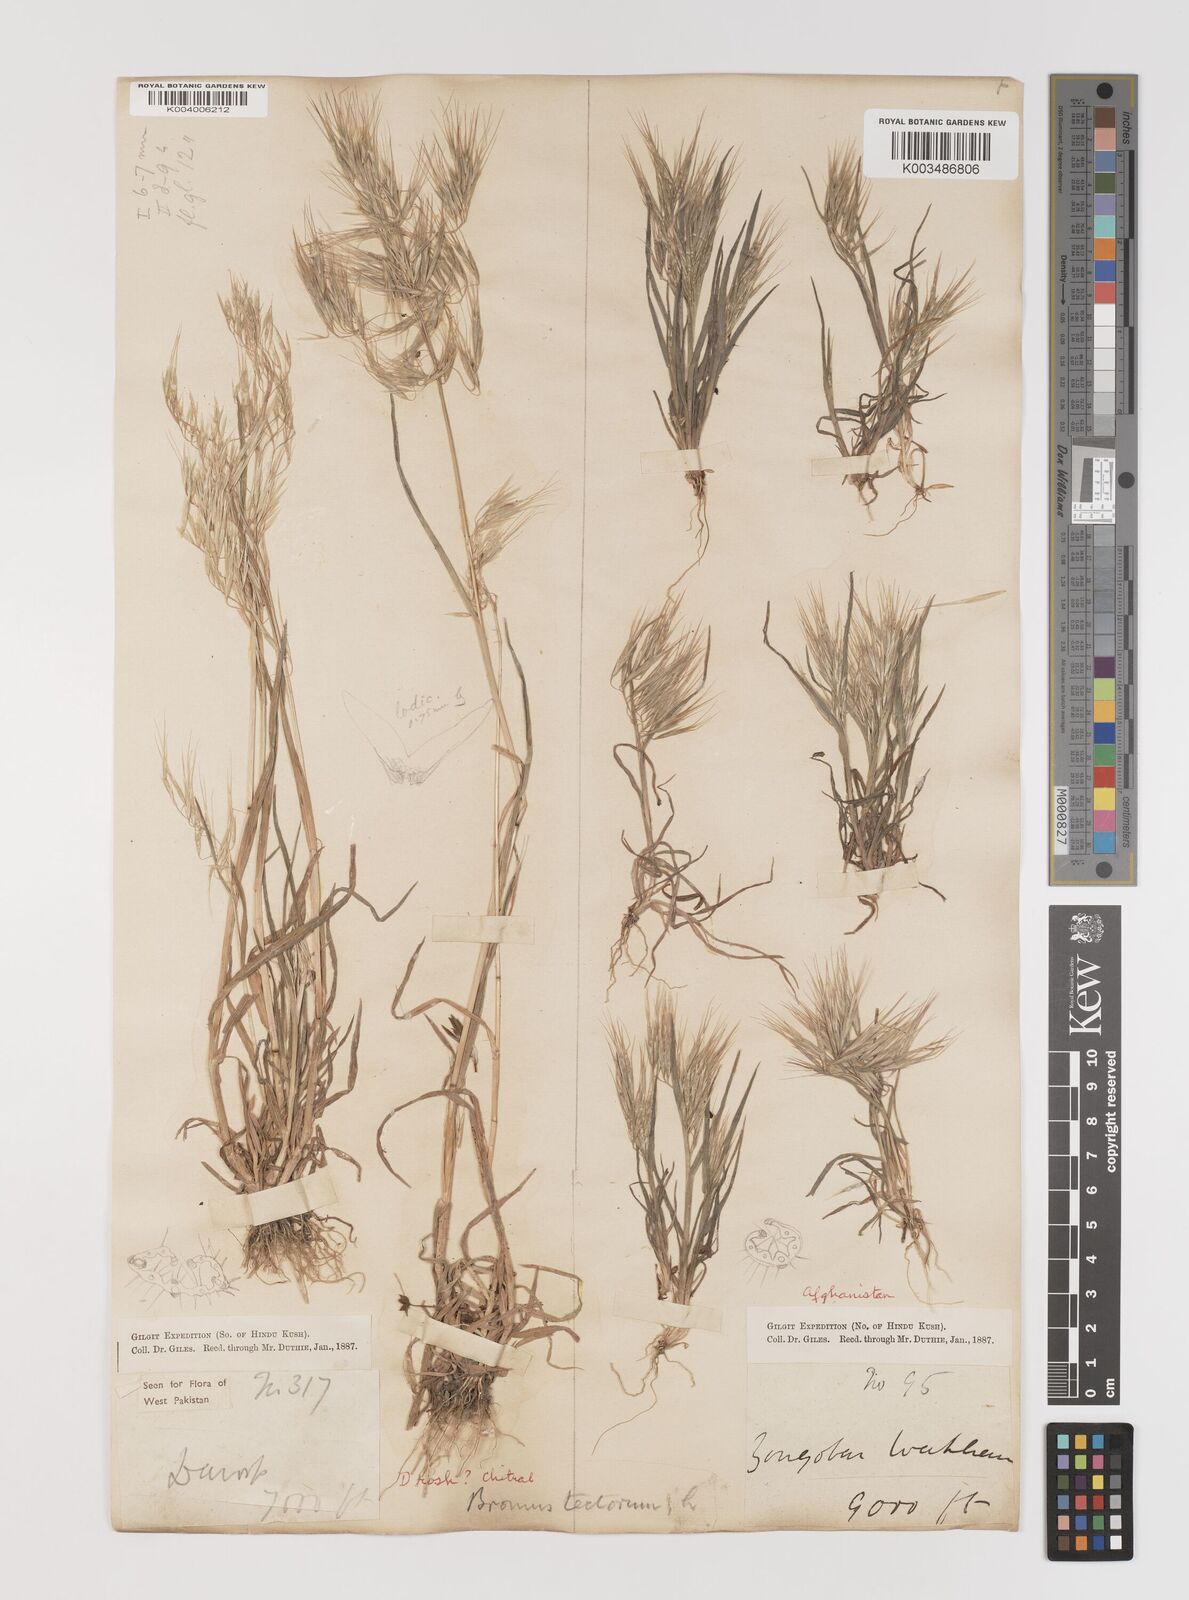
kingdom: Plantae
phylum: Tracheophyta
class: Liliopsida
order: Poales
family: Poaceae
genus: Bromus
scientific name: Bromus tectorum
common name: Cheatgrass
